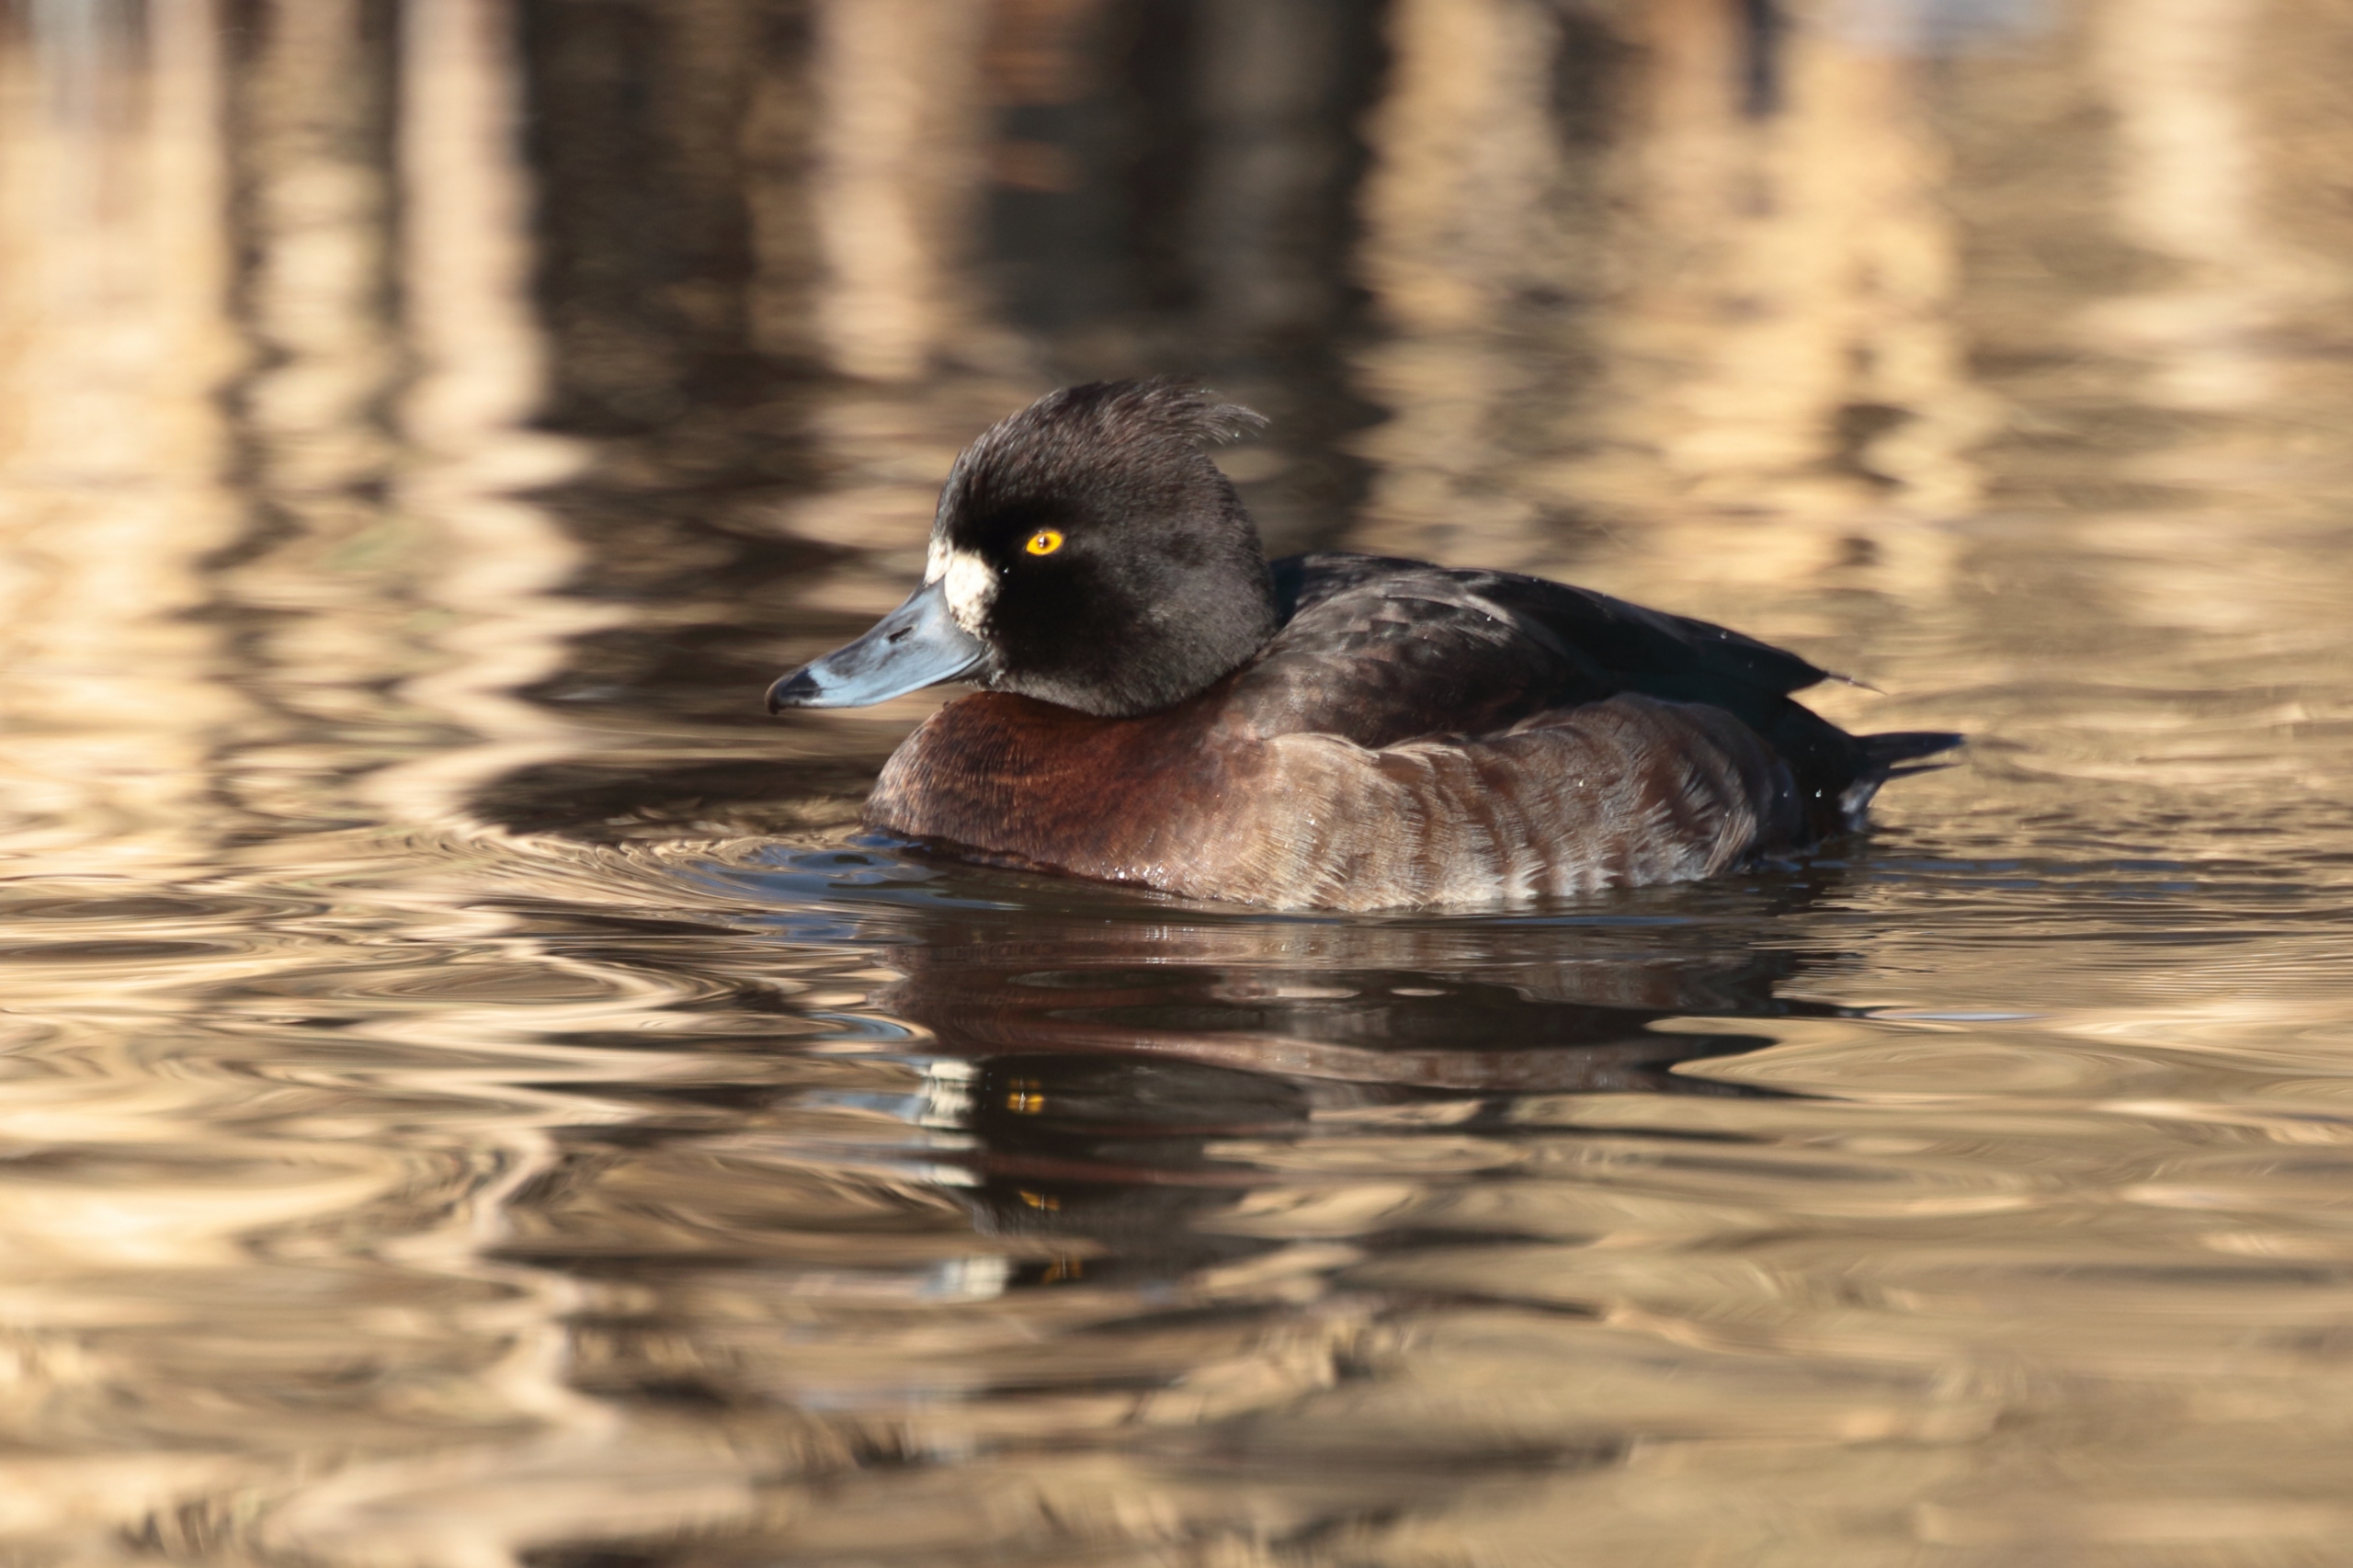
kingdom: Animalia
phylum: Chordata
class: Aves
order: Anseriformes
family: Anatidae
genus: Aythya
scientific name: Aythya fuligula
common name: Troldand
